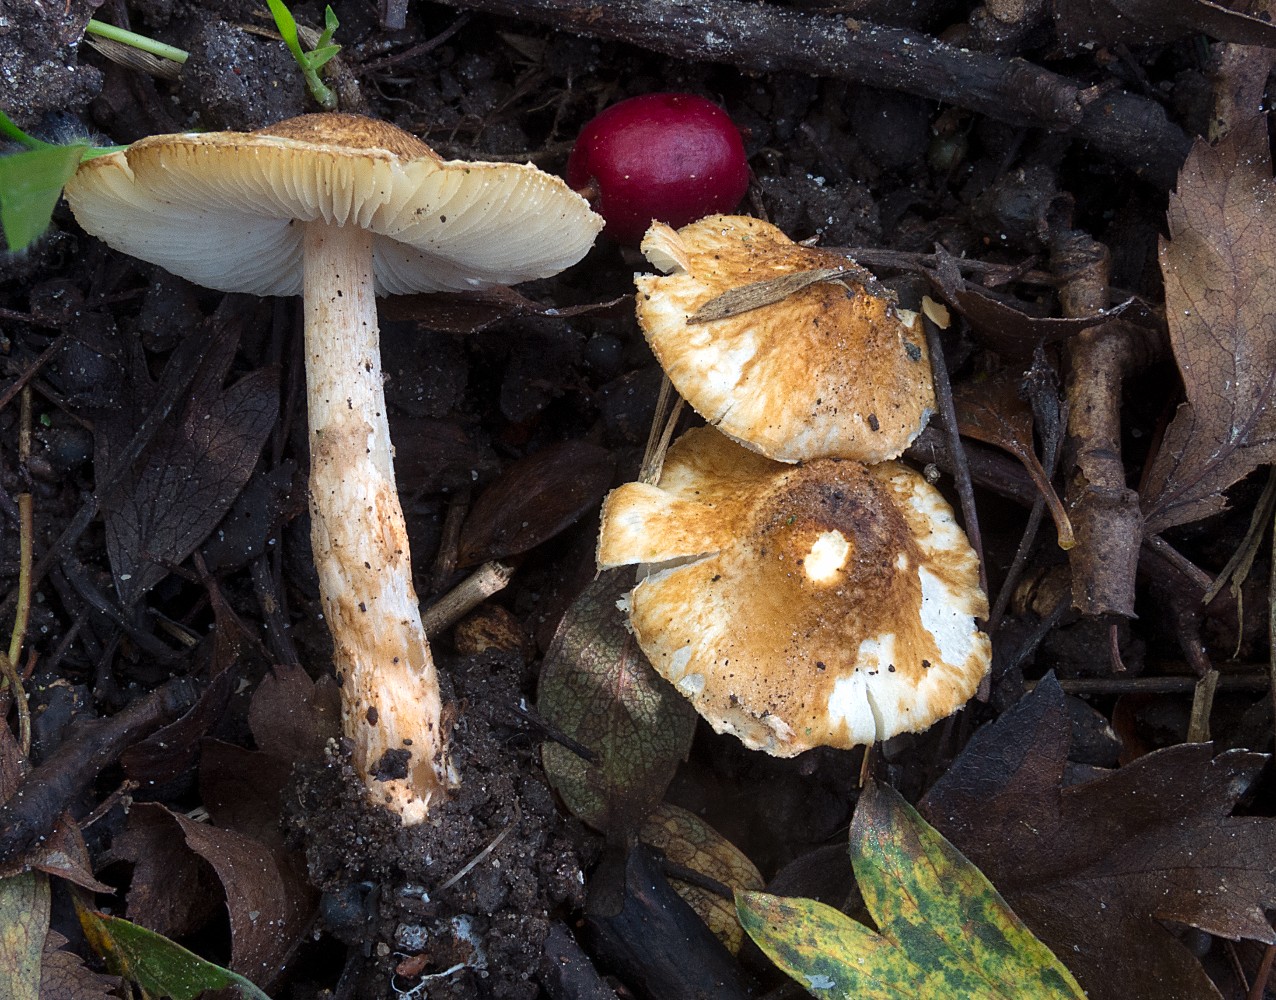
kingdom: Fungi
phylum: Basidiomycota
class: Agaricomycetes
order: Agaricales
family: Agaricaceae
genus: Leucocoprinus
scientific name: Leucocoprinus straminellus
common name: rustbrun parasolhat
